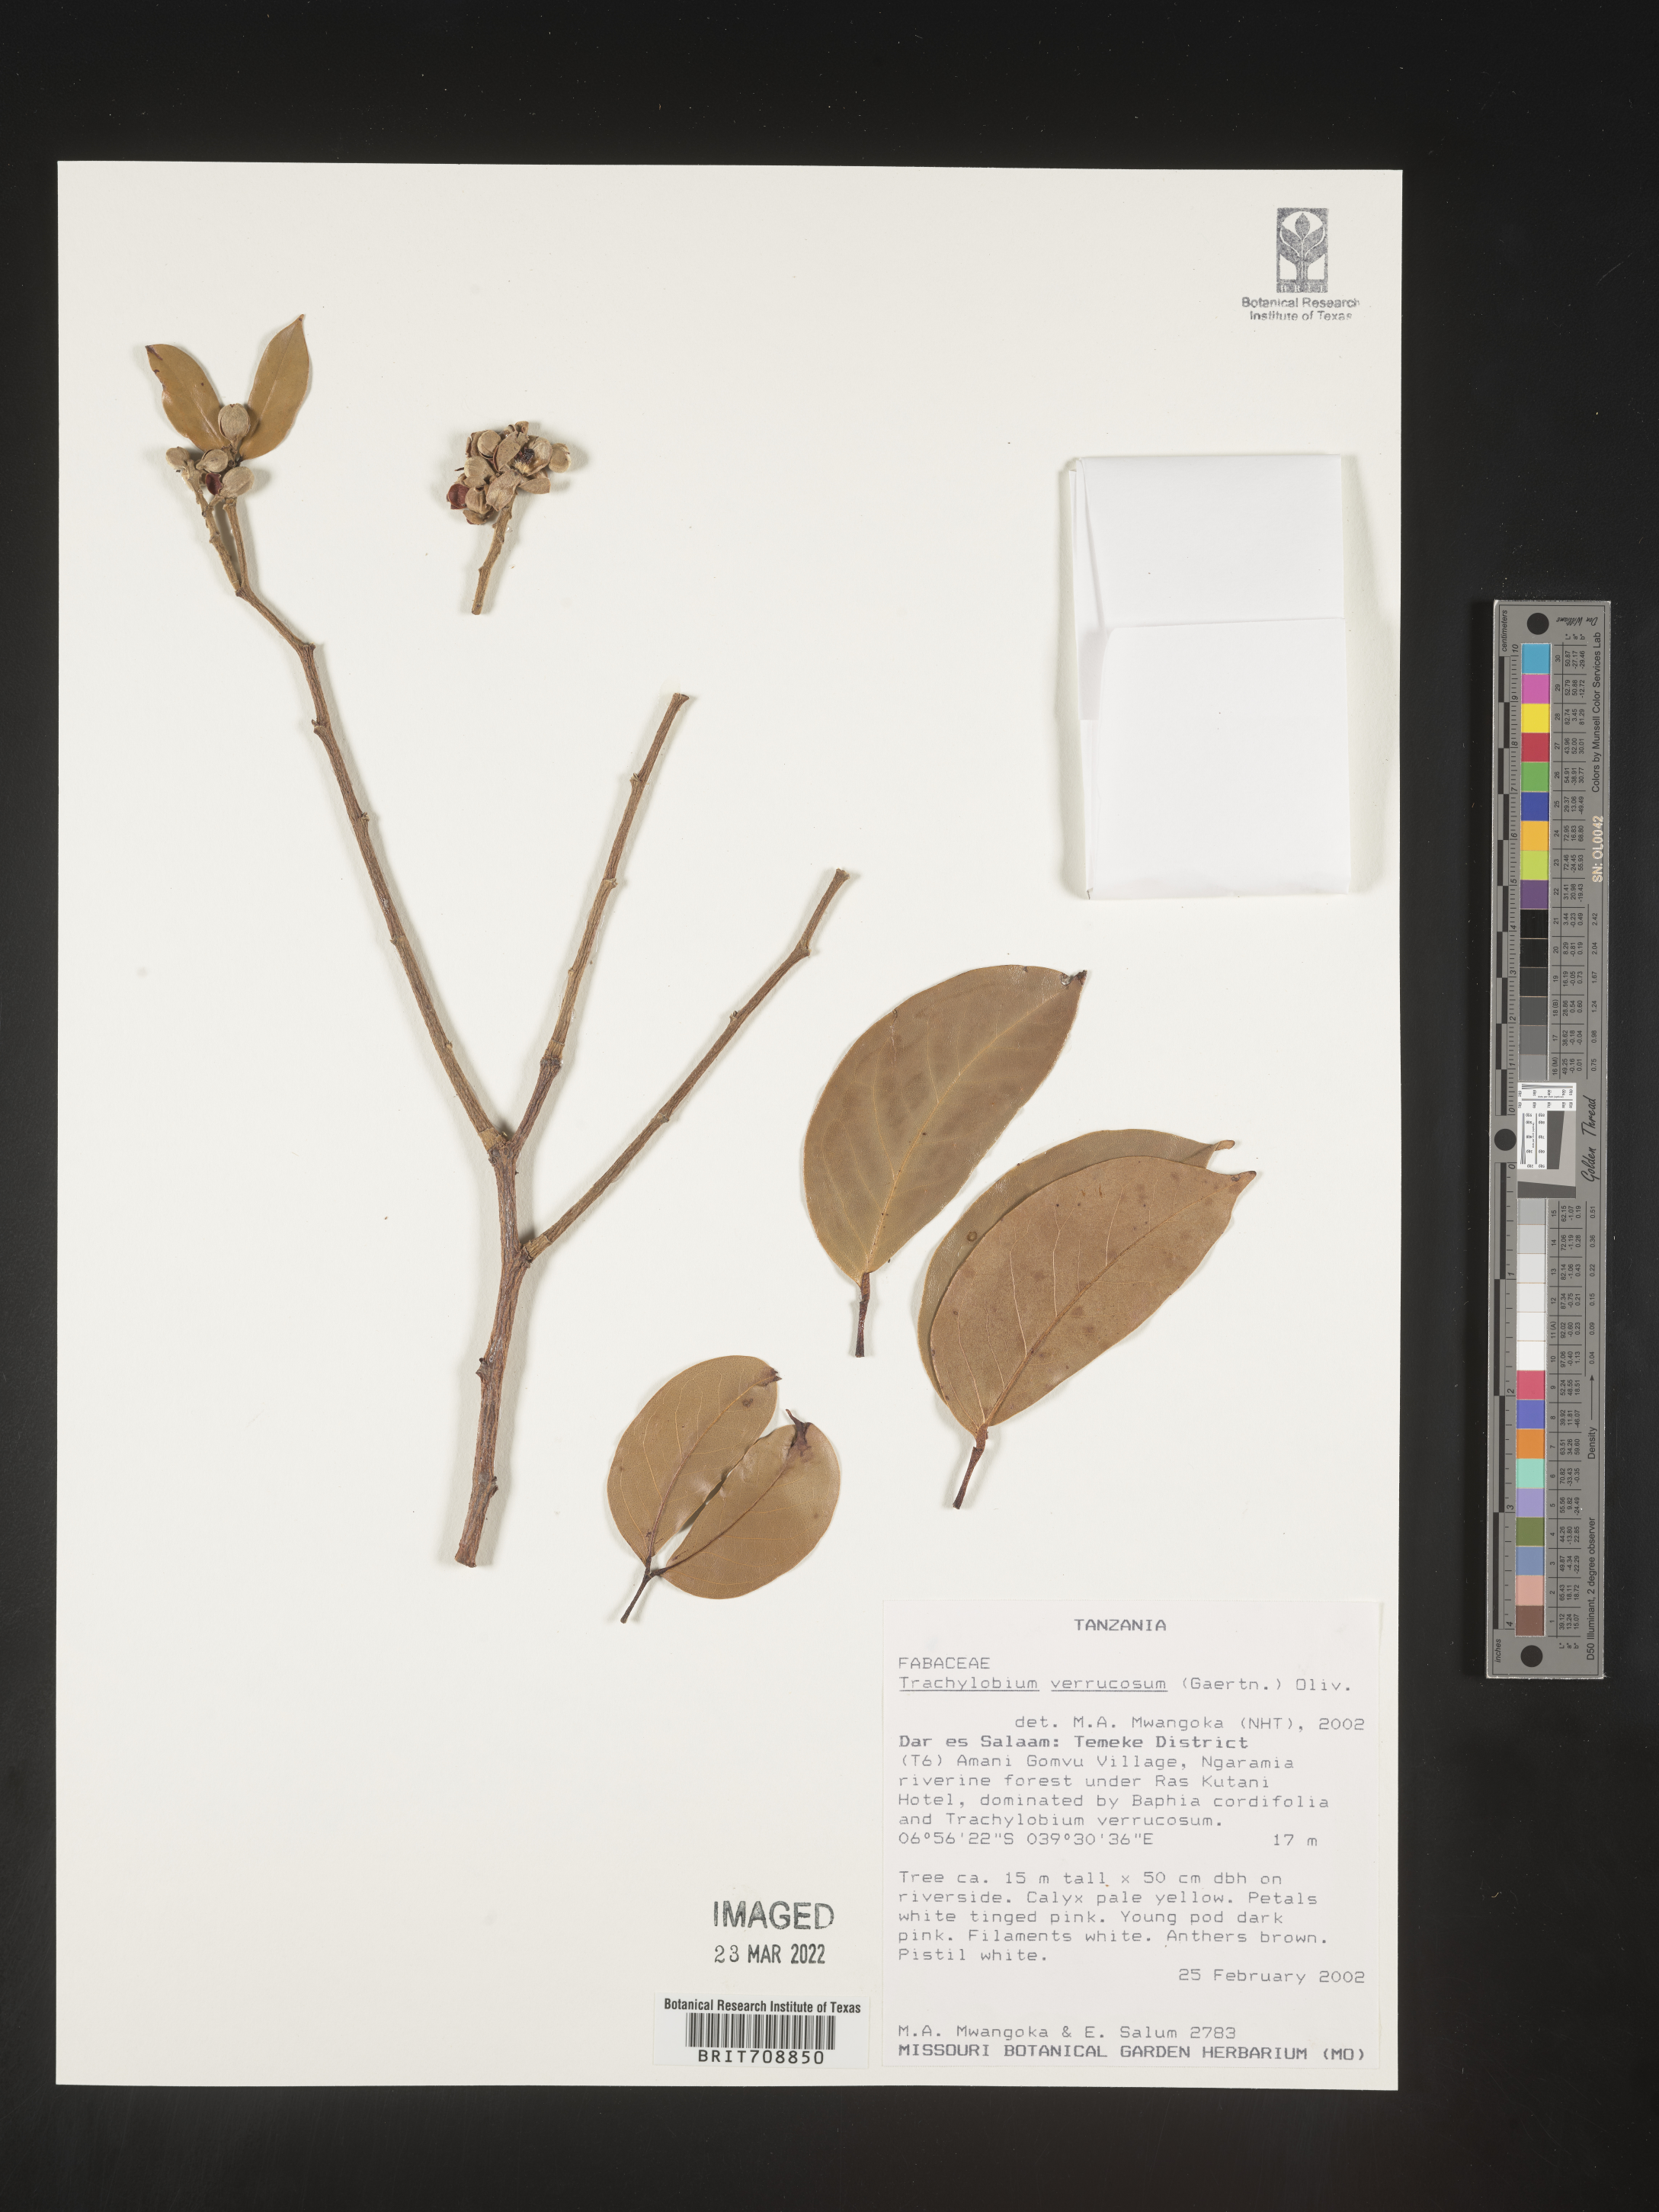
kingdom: Plantae
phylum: Tracheophyta
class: Magnoliopsida
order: Fabales
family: Fabaceae
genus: Hymenaea
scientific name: Hymenaea
